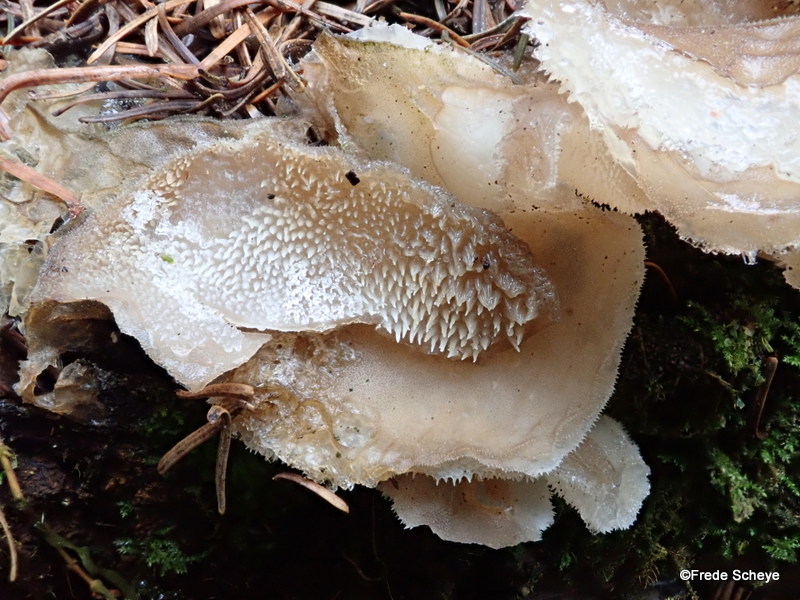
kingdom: Fungi
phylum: Basidiomycota
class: Agaricomycetes
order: Auriculariales
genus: Pseudohydnum
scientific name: Pseudohydnum gelatinosum
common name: bævretand
